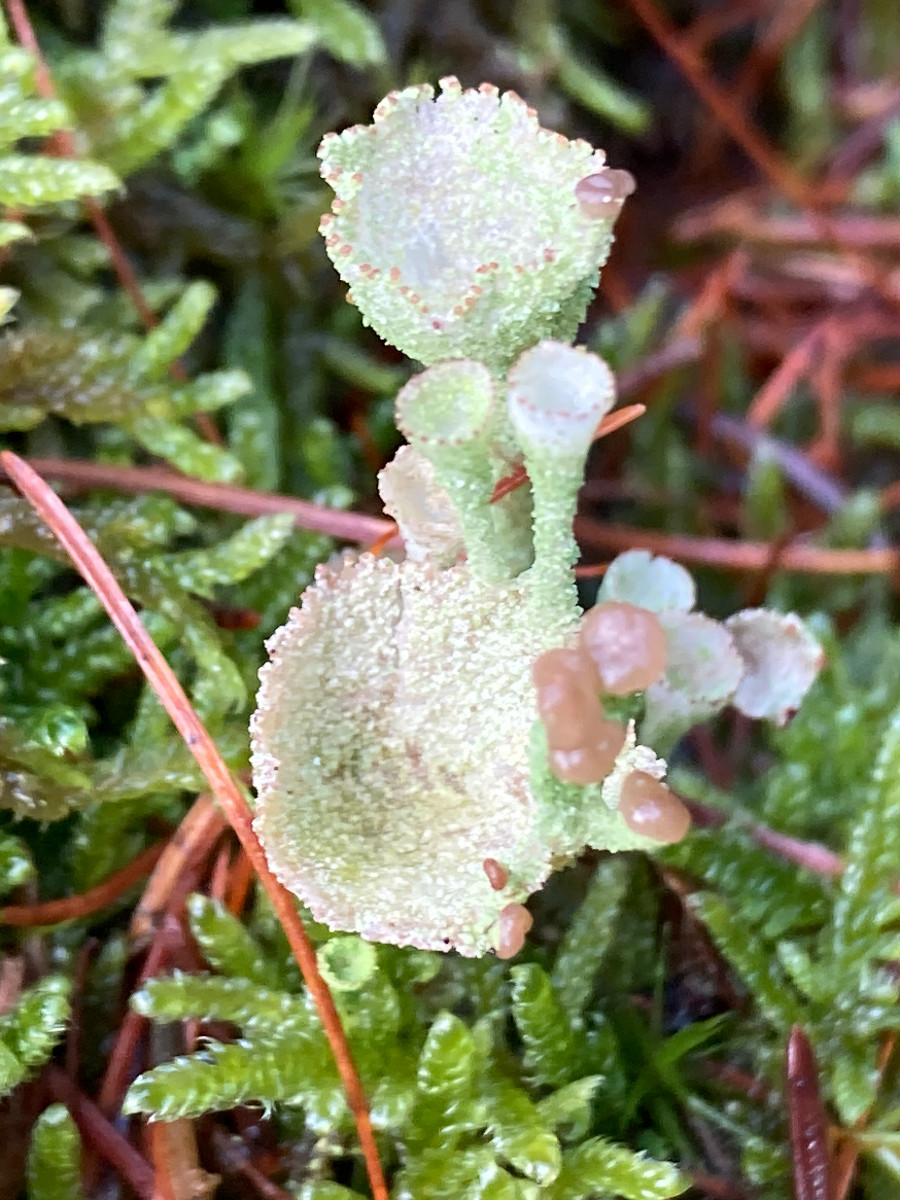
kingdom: Fungi
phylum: Ascomycota
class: Lecanoromycetes
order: Lecanorales
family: Cladoniaceae
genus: Cladonia
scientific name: Cladonia
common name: brungrøn bægerlav
